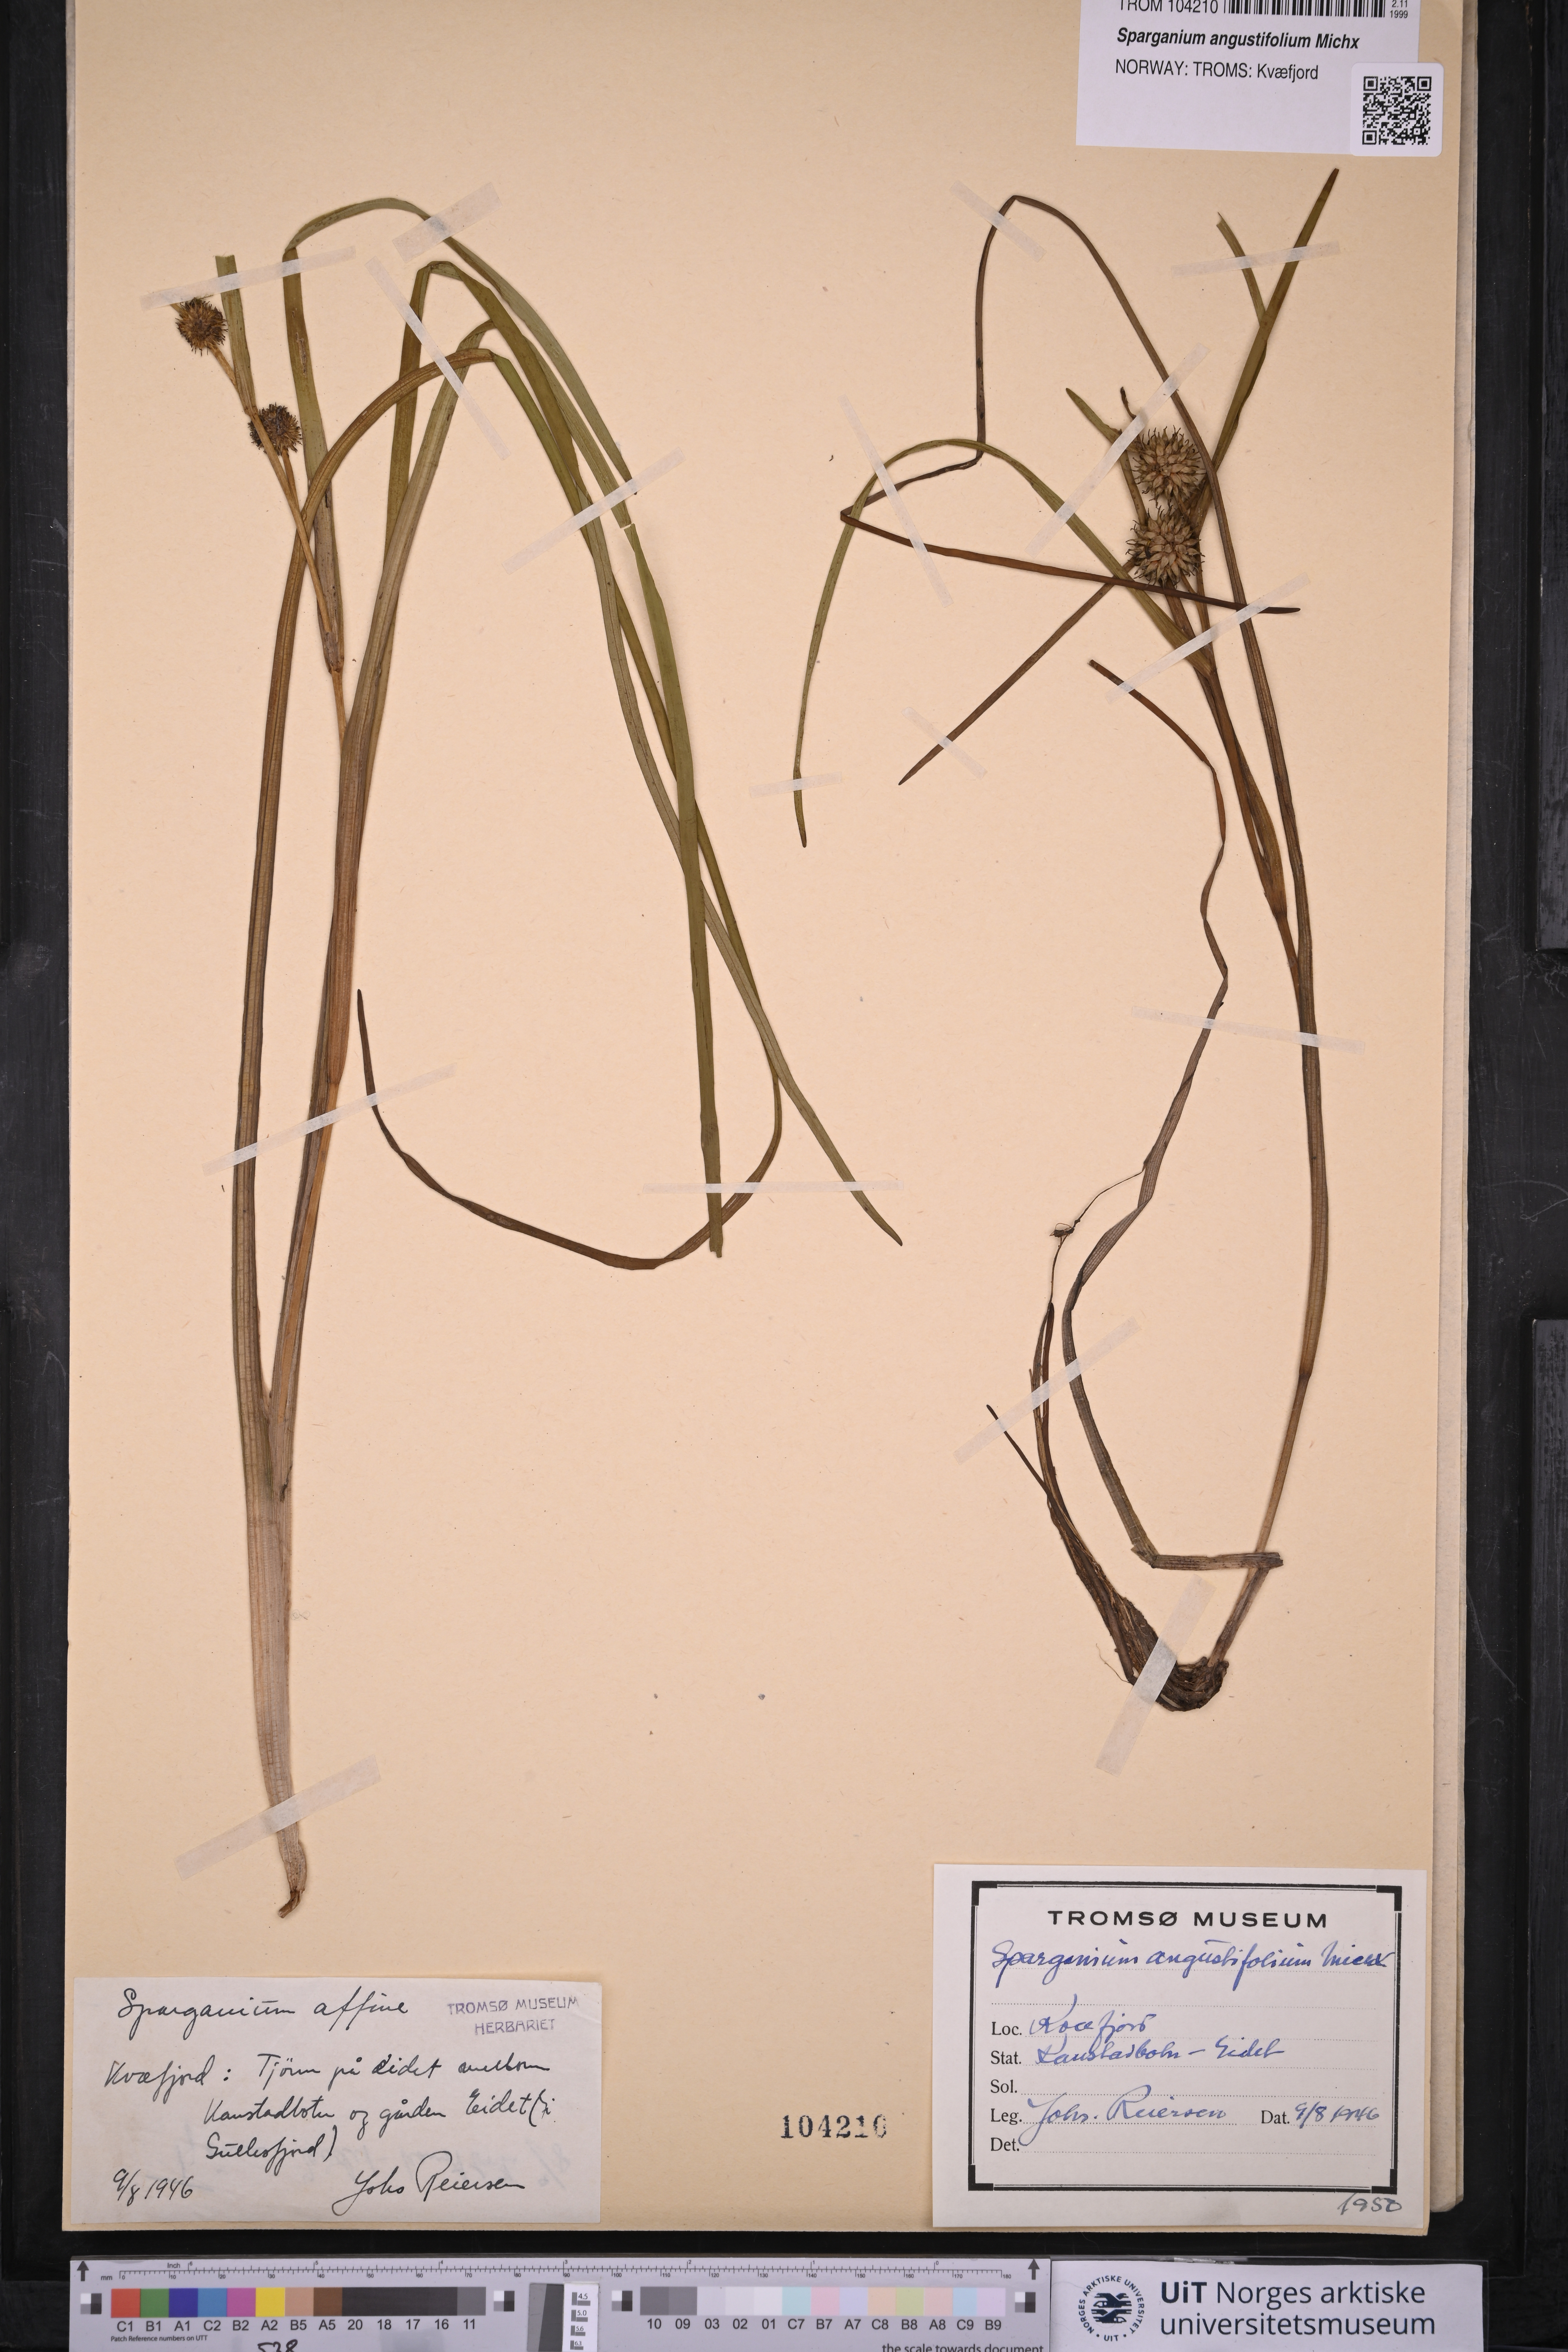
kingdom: Plantae
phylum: Tracheophyta
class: Liliopsida
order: Poales
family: Typhaceae
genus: Sparganium
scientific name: Sparganium angustifolium
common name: Floating bur-reed
